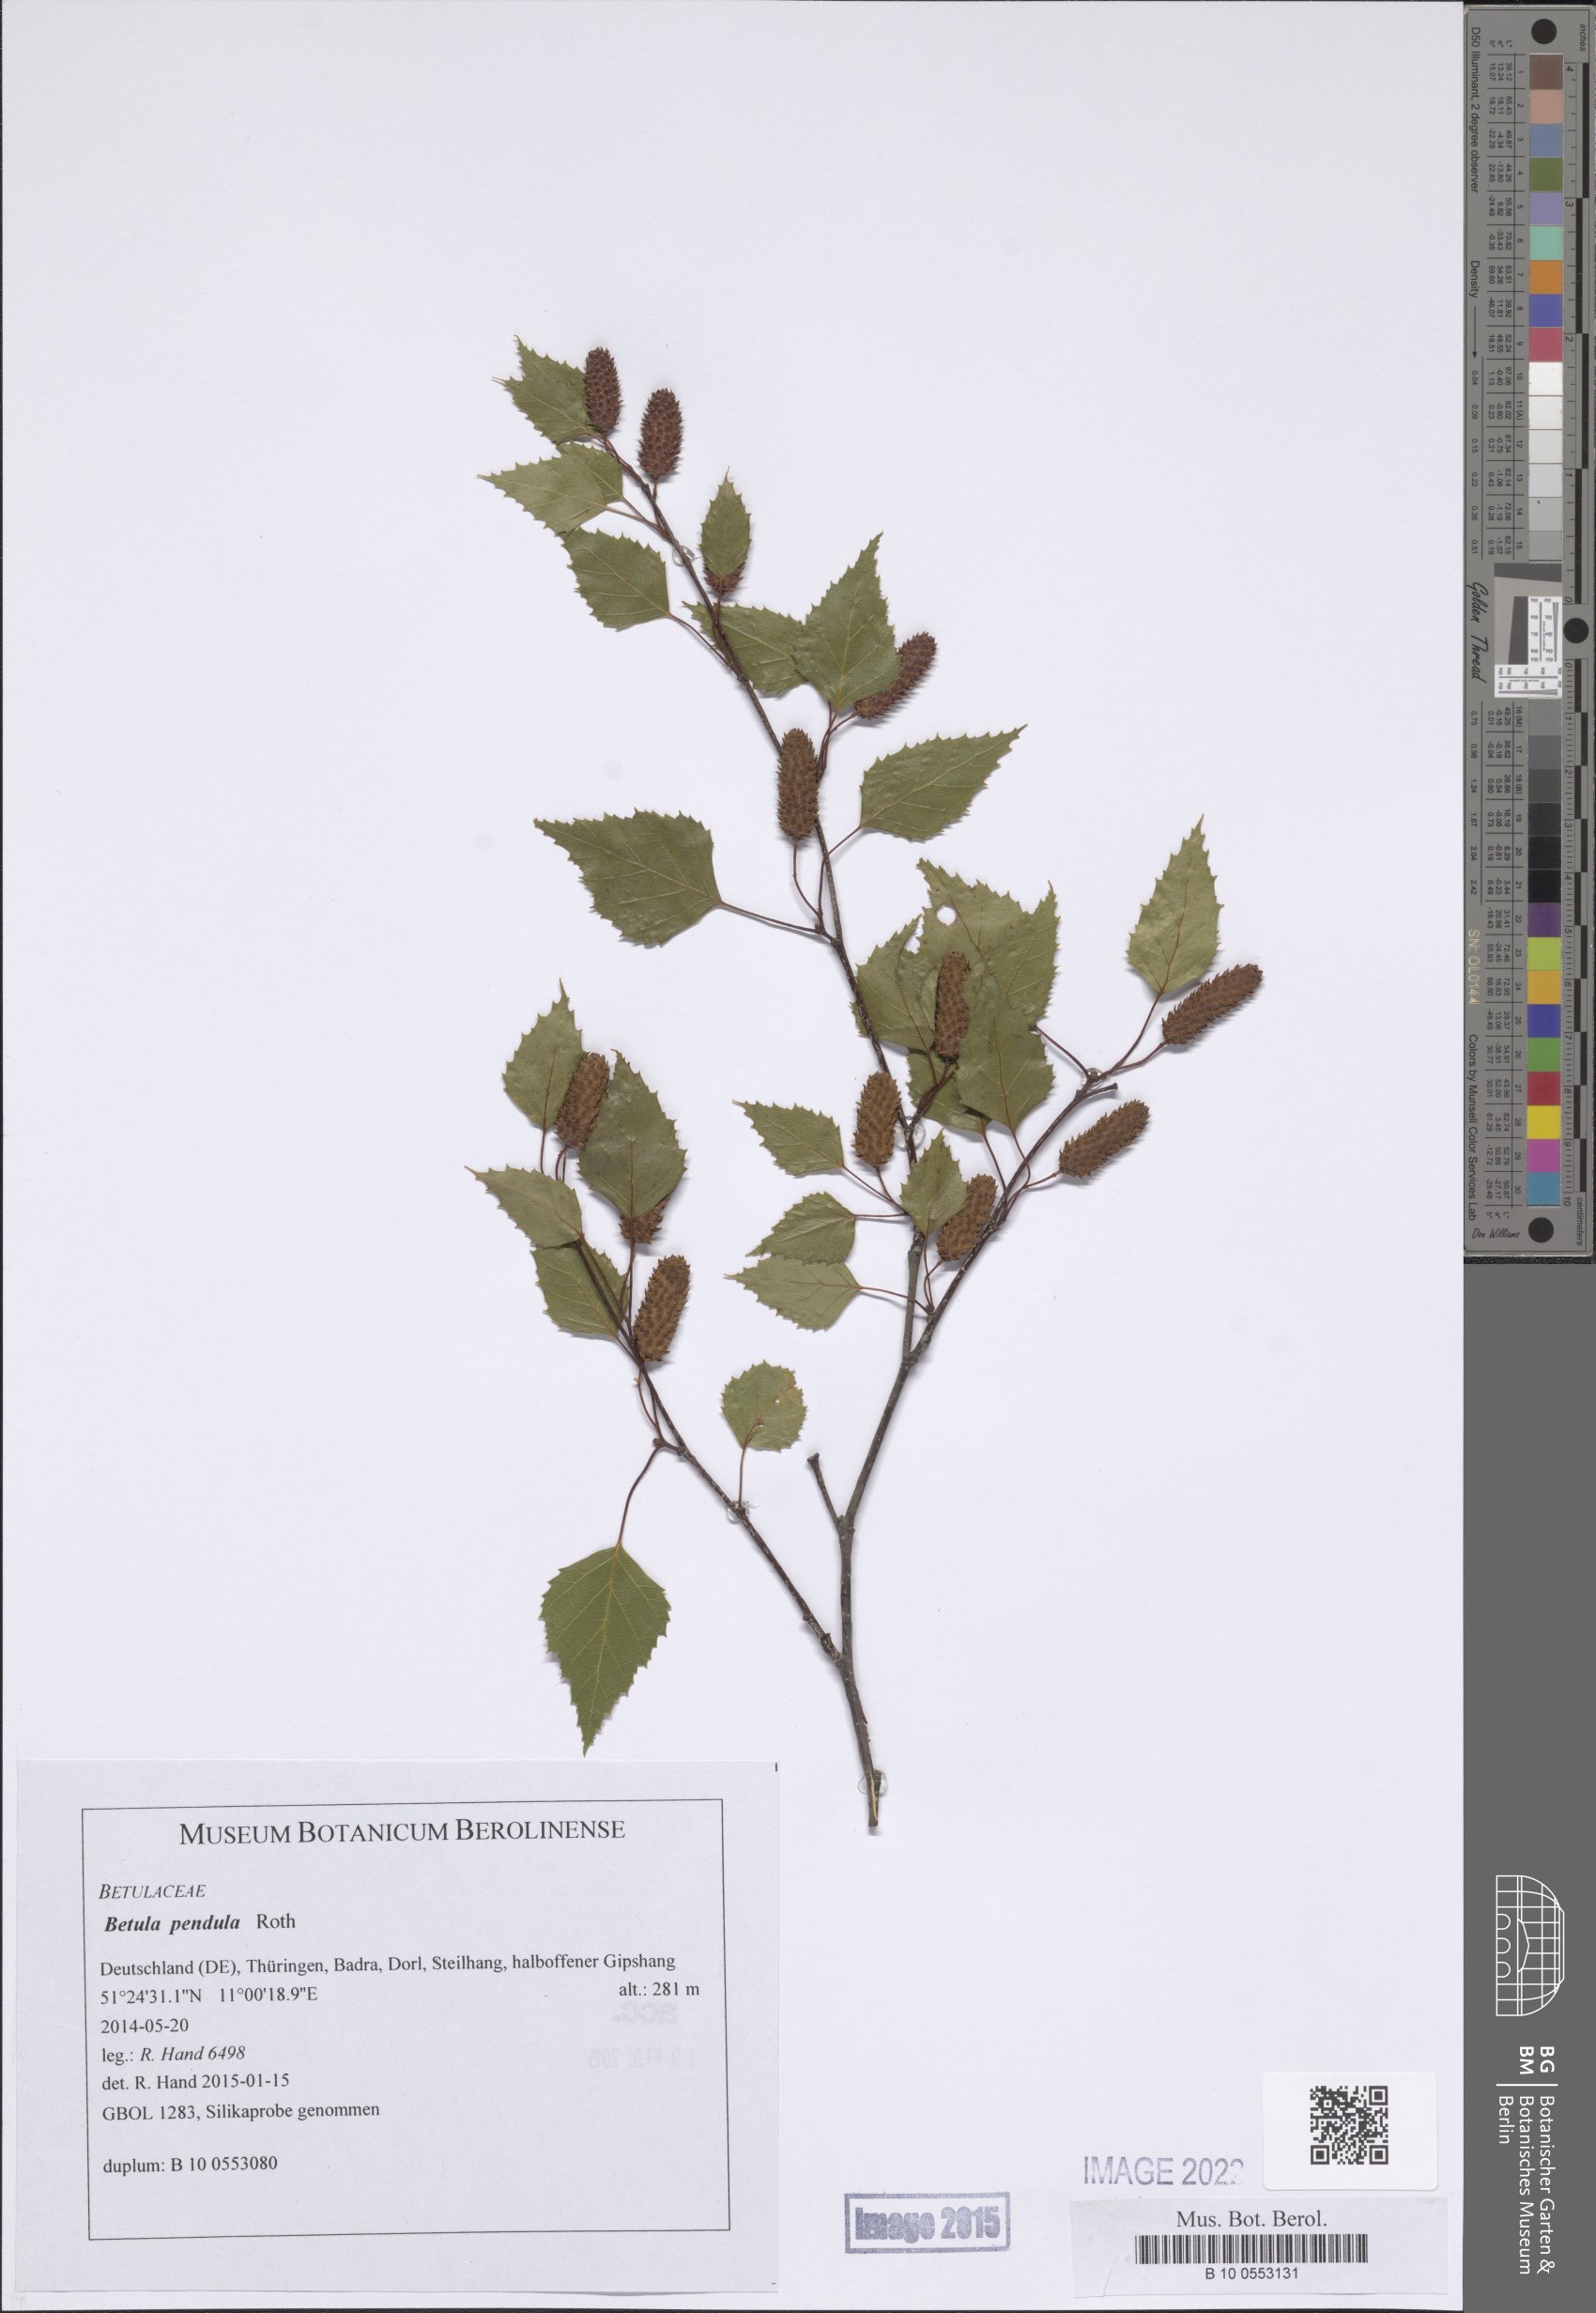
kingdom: Plantae
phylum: Tracheophyta
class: Magnoliopsida
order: Fagales
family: Betulaceae
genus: Betula
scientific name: Betula pendula
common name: Silver birch
